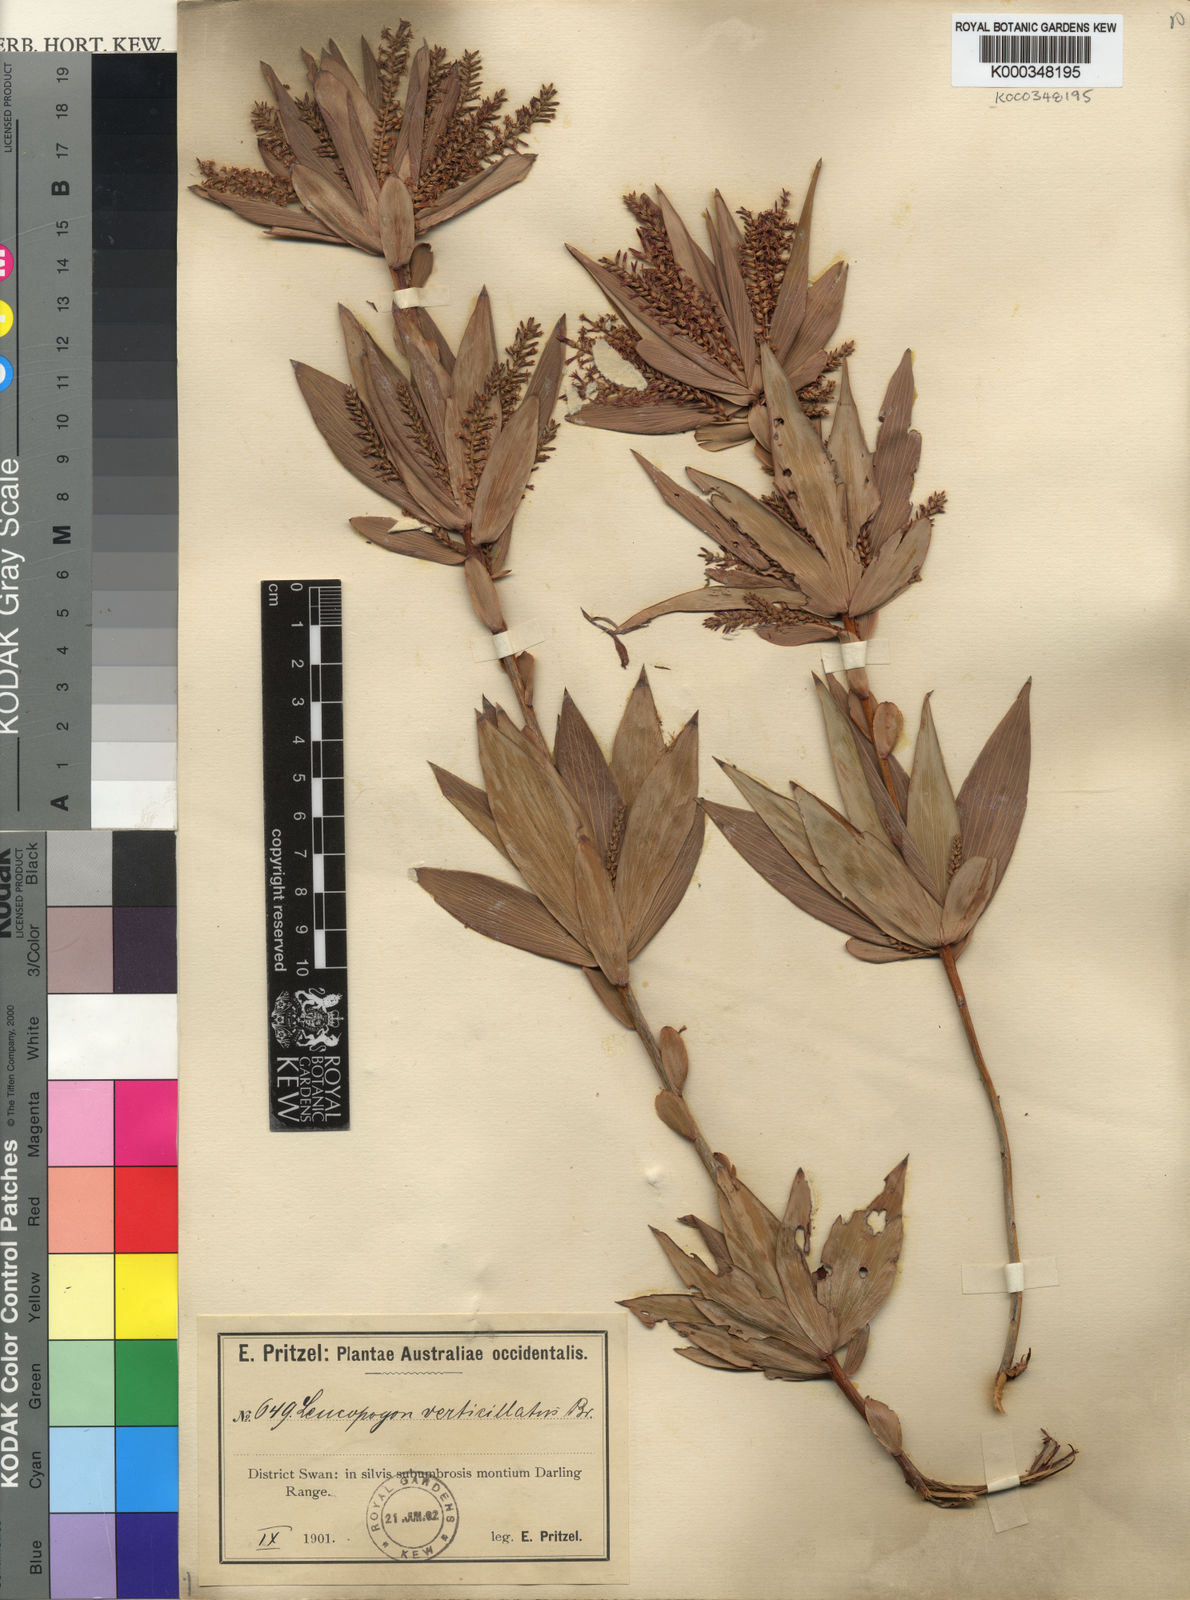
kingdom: Plantae
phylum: Tracheophyta
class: Magnoliopsida
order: Ericales
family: Ericaceae
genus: Leucopogon
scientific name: Leucopogon verticillatus
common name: Tasselshrub
